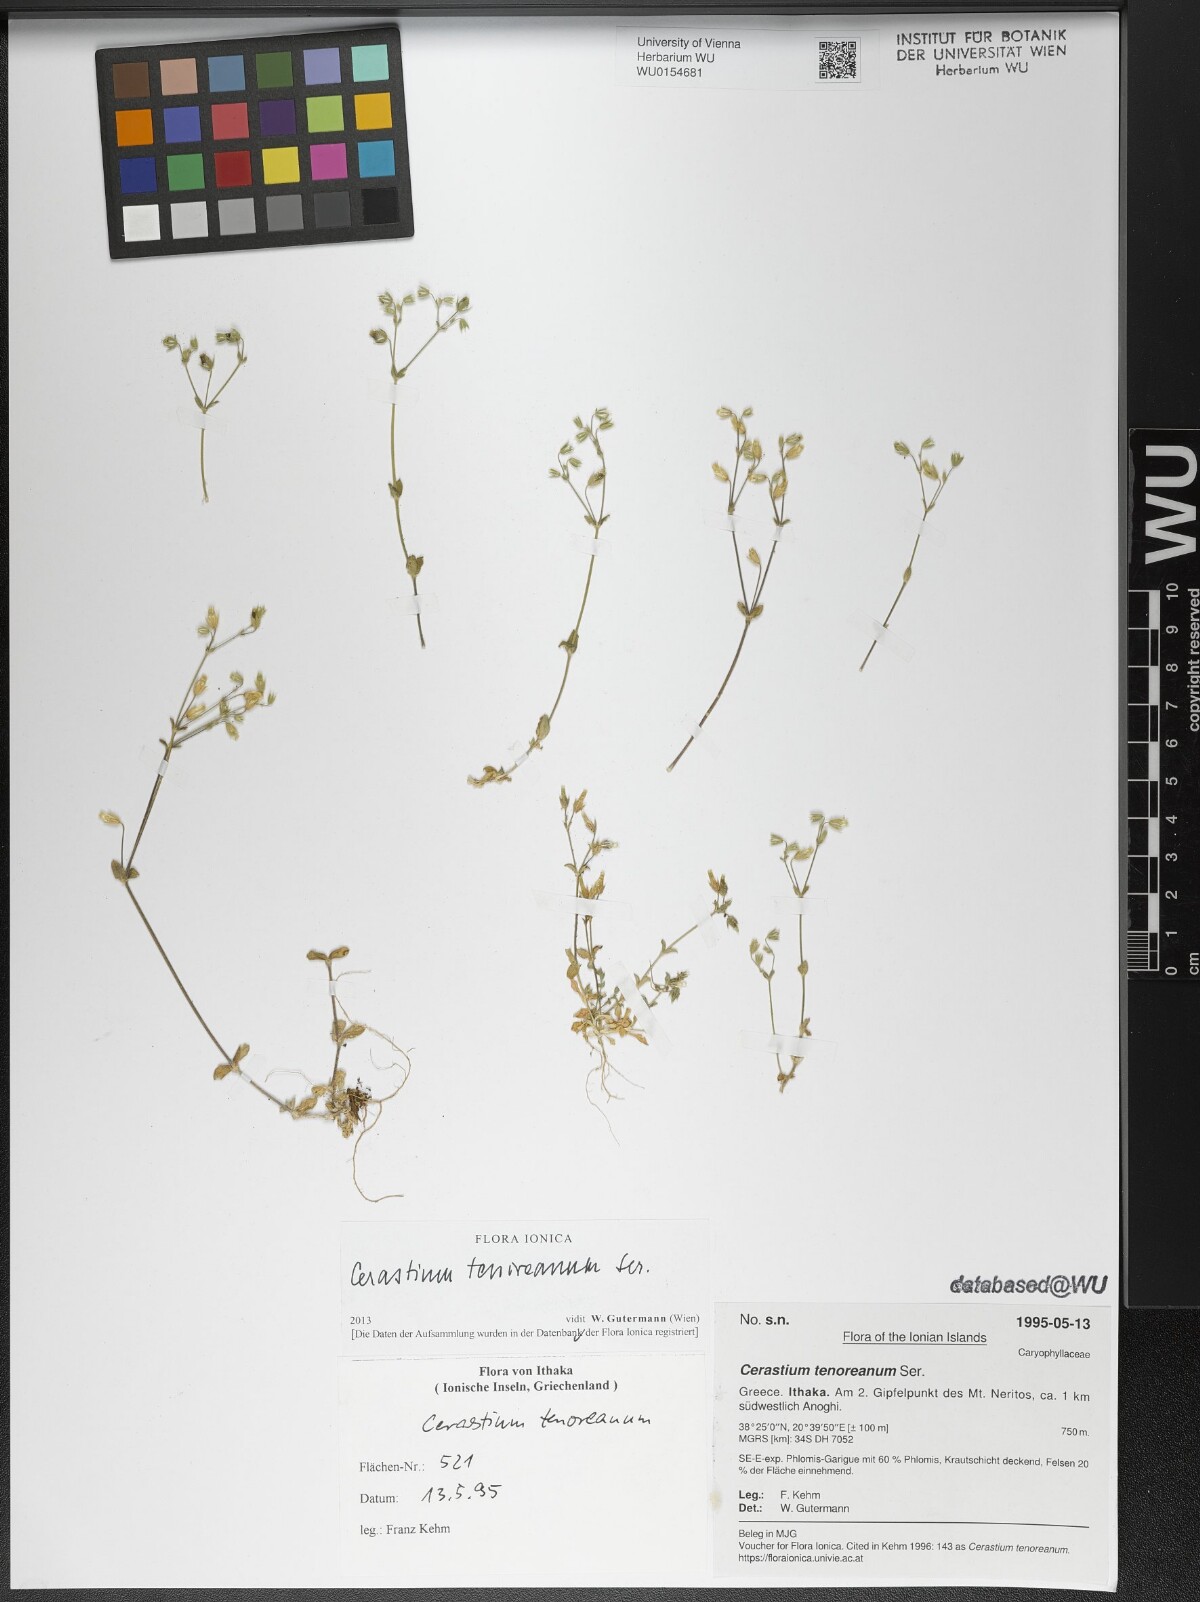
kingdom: Plantae
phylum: Tracheophyta
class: Magnoliopsida
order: Caryophyllales
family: Caryophyllaceae
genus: Cerastium
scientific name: Cerastium tenoreanum
